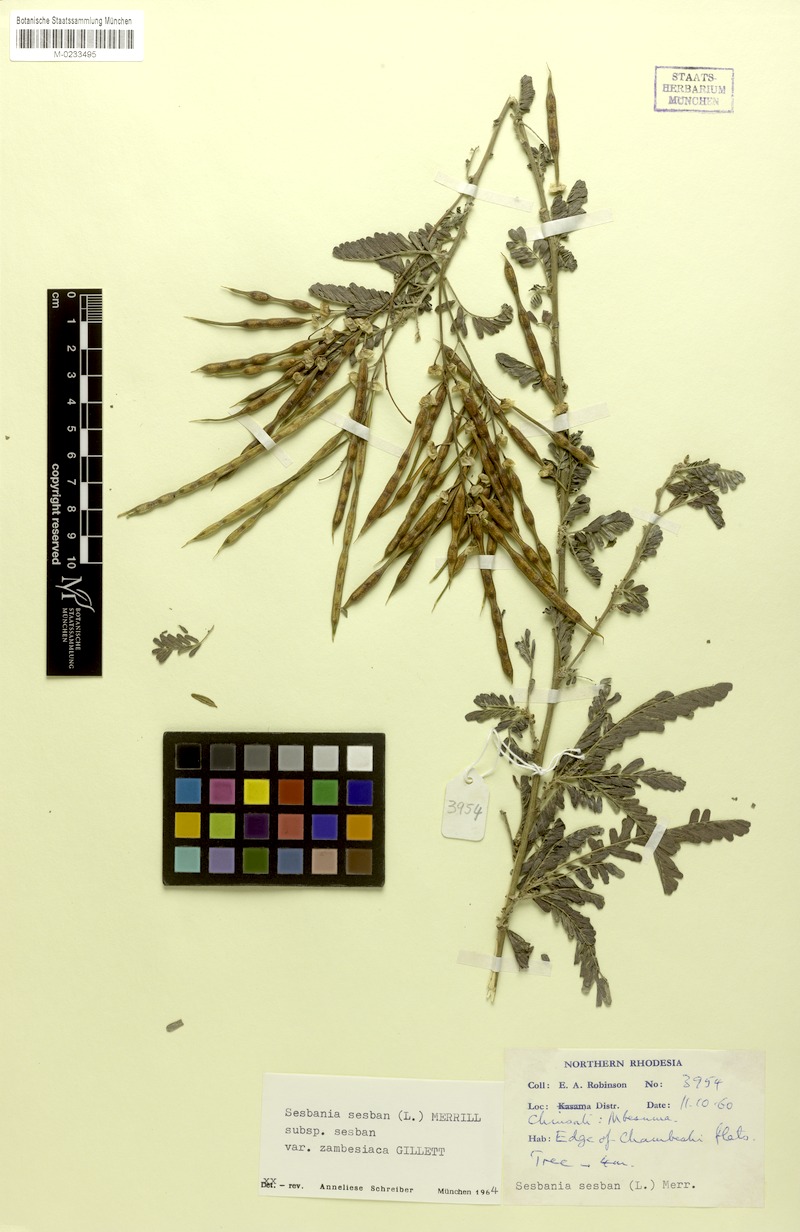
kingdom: Plantae
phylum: Tracheophyta
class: Magnoliopsida
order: Fabales
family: Fabaceae
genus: Sesbania
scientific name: Sesbania sesban
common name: Egyptian sesban
